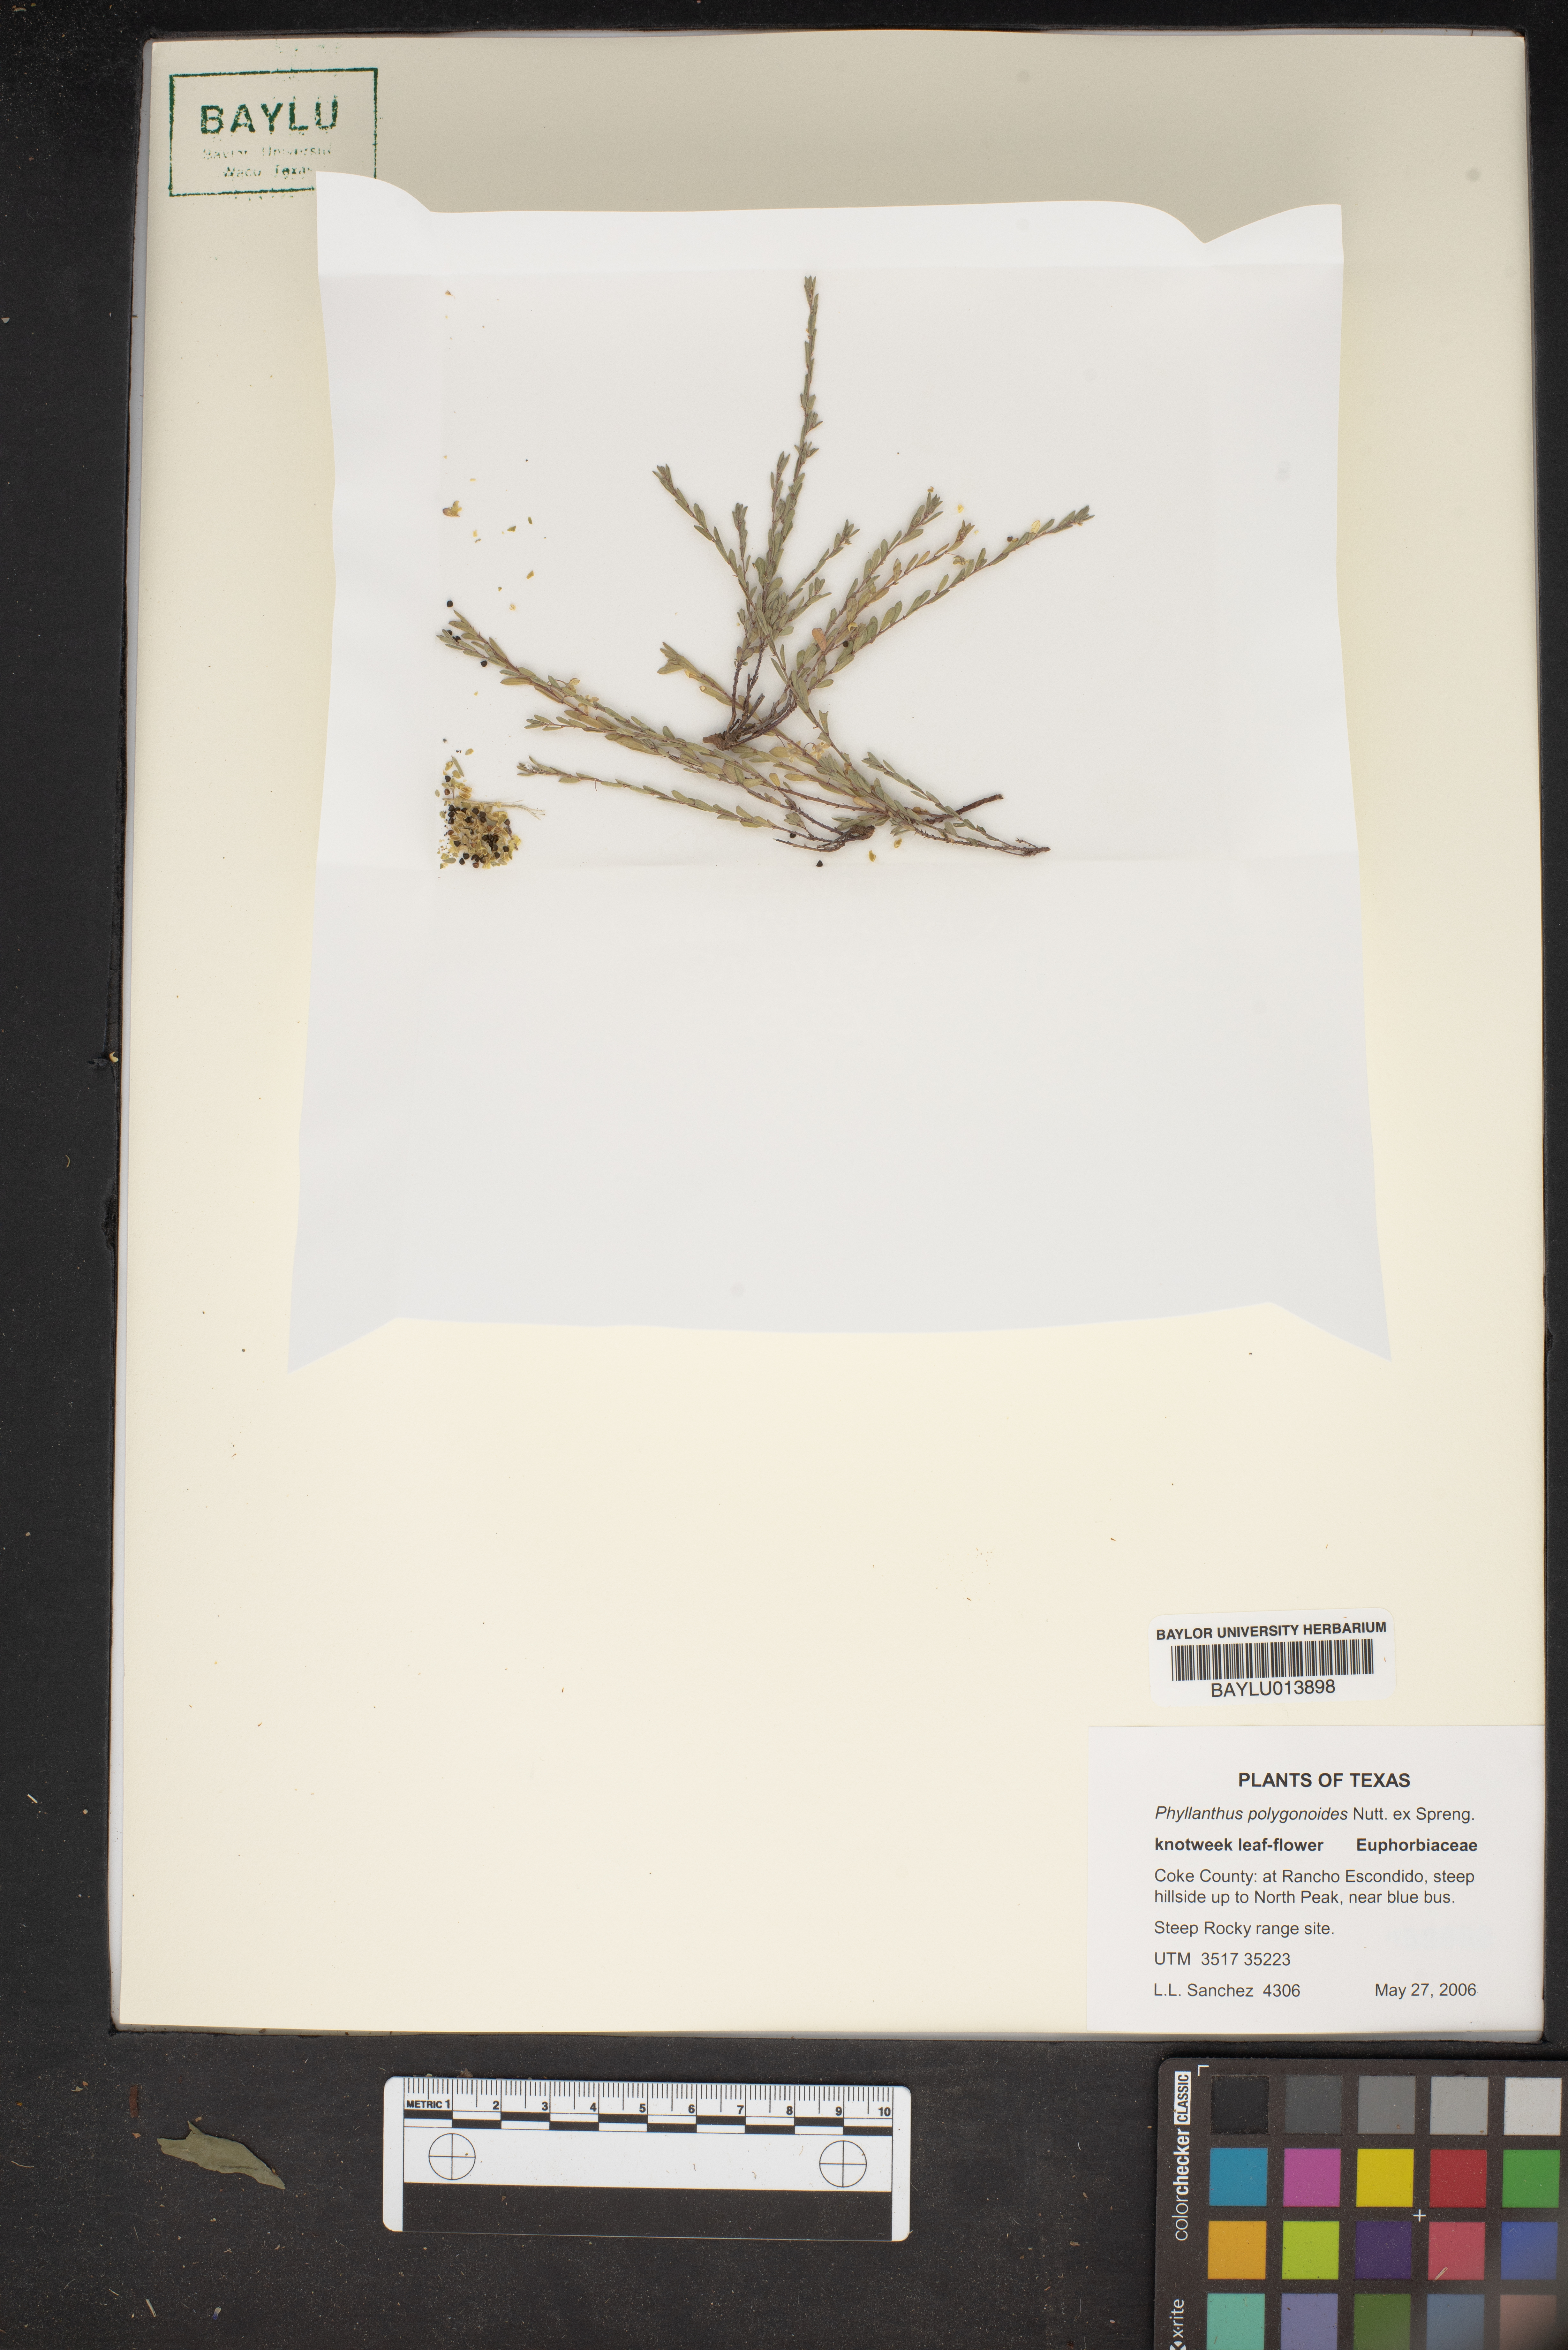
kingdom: Plantae
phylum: Tracheophyta
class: Magnoliopsida
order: Malpighiales
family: Phyllanthaceae
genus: Phyllanthus
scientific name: Phyllanthus polygonoides
